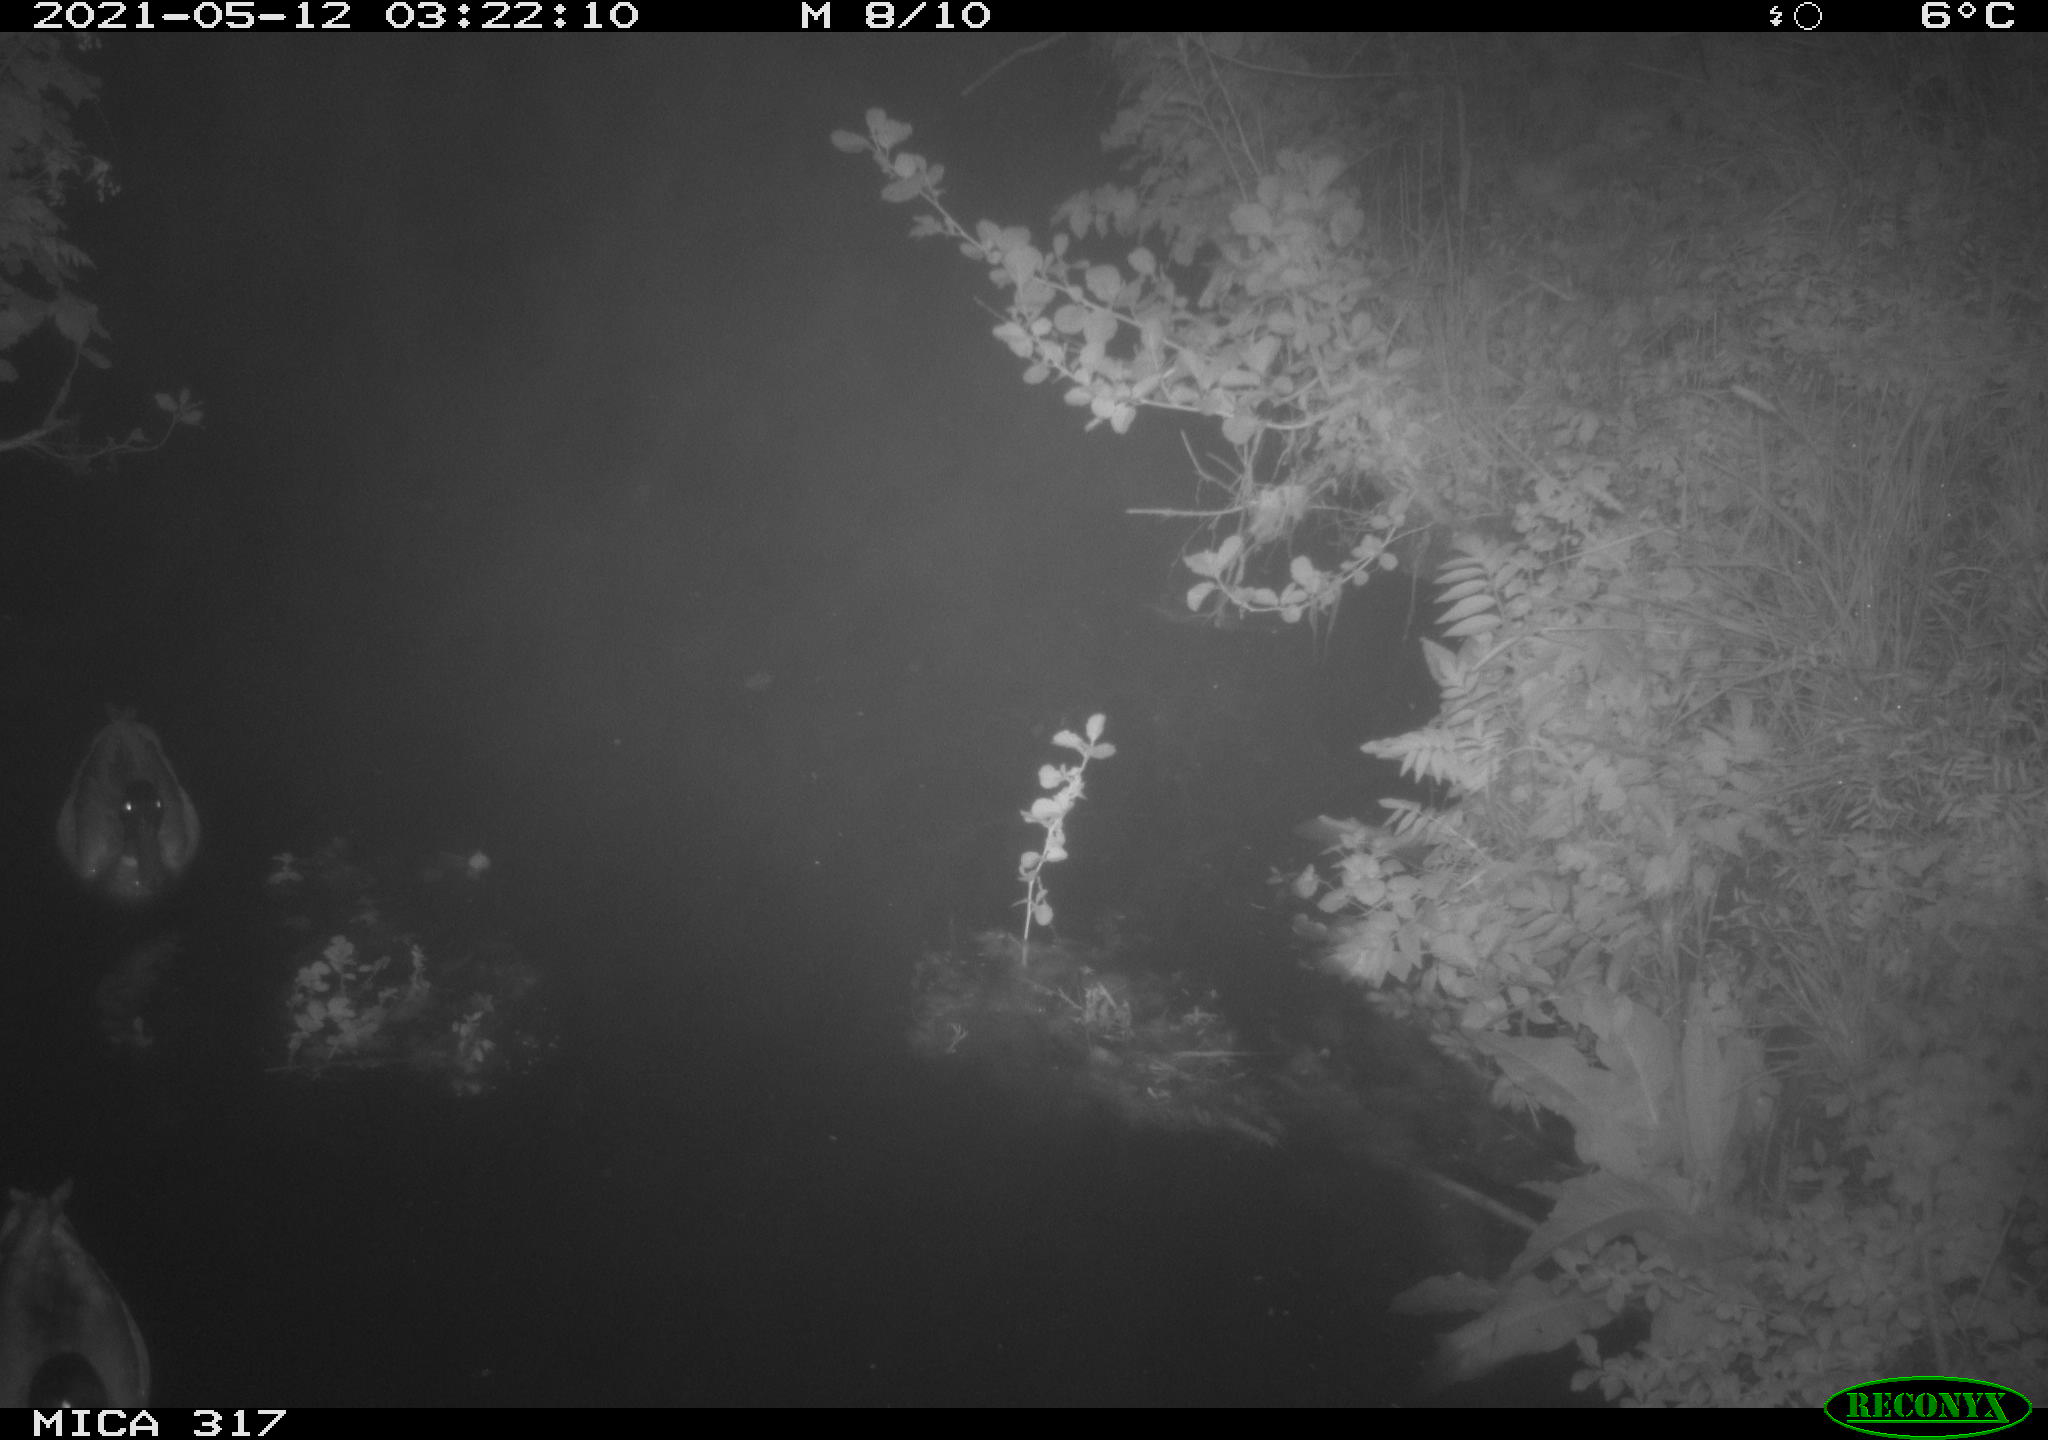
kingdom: Animalia
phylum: Chordata
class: Aves
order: Anseriformes
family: Anatidae
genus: Anas
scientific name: Anas
